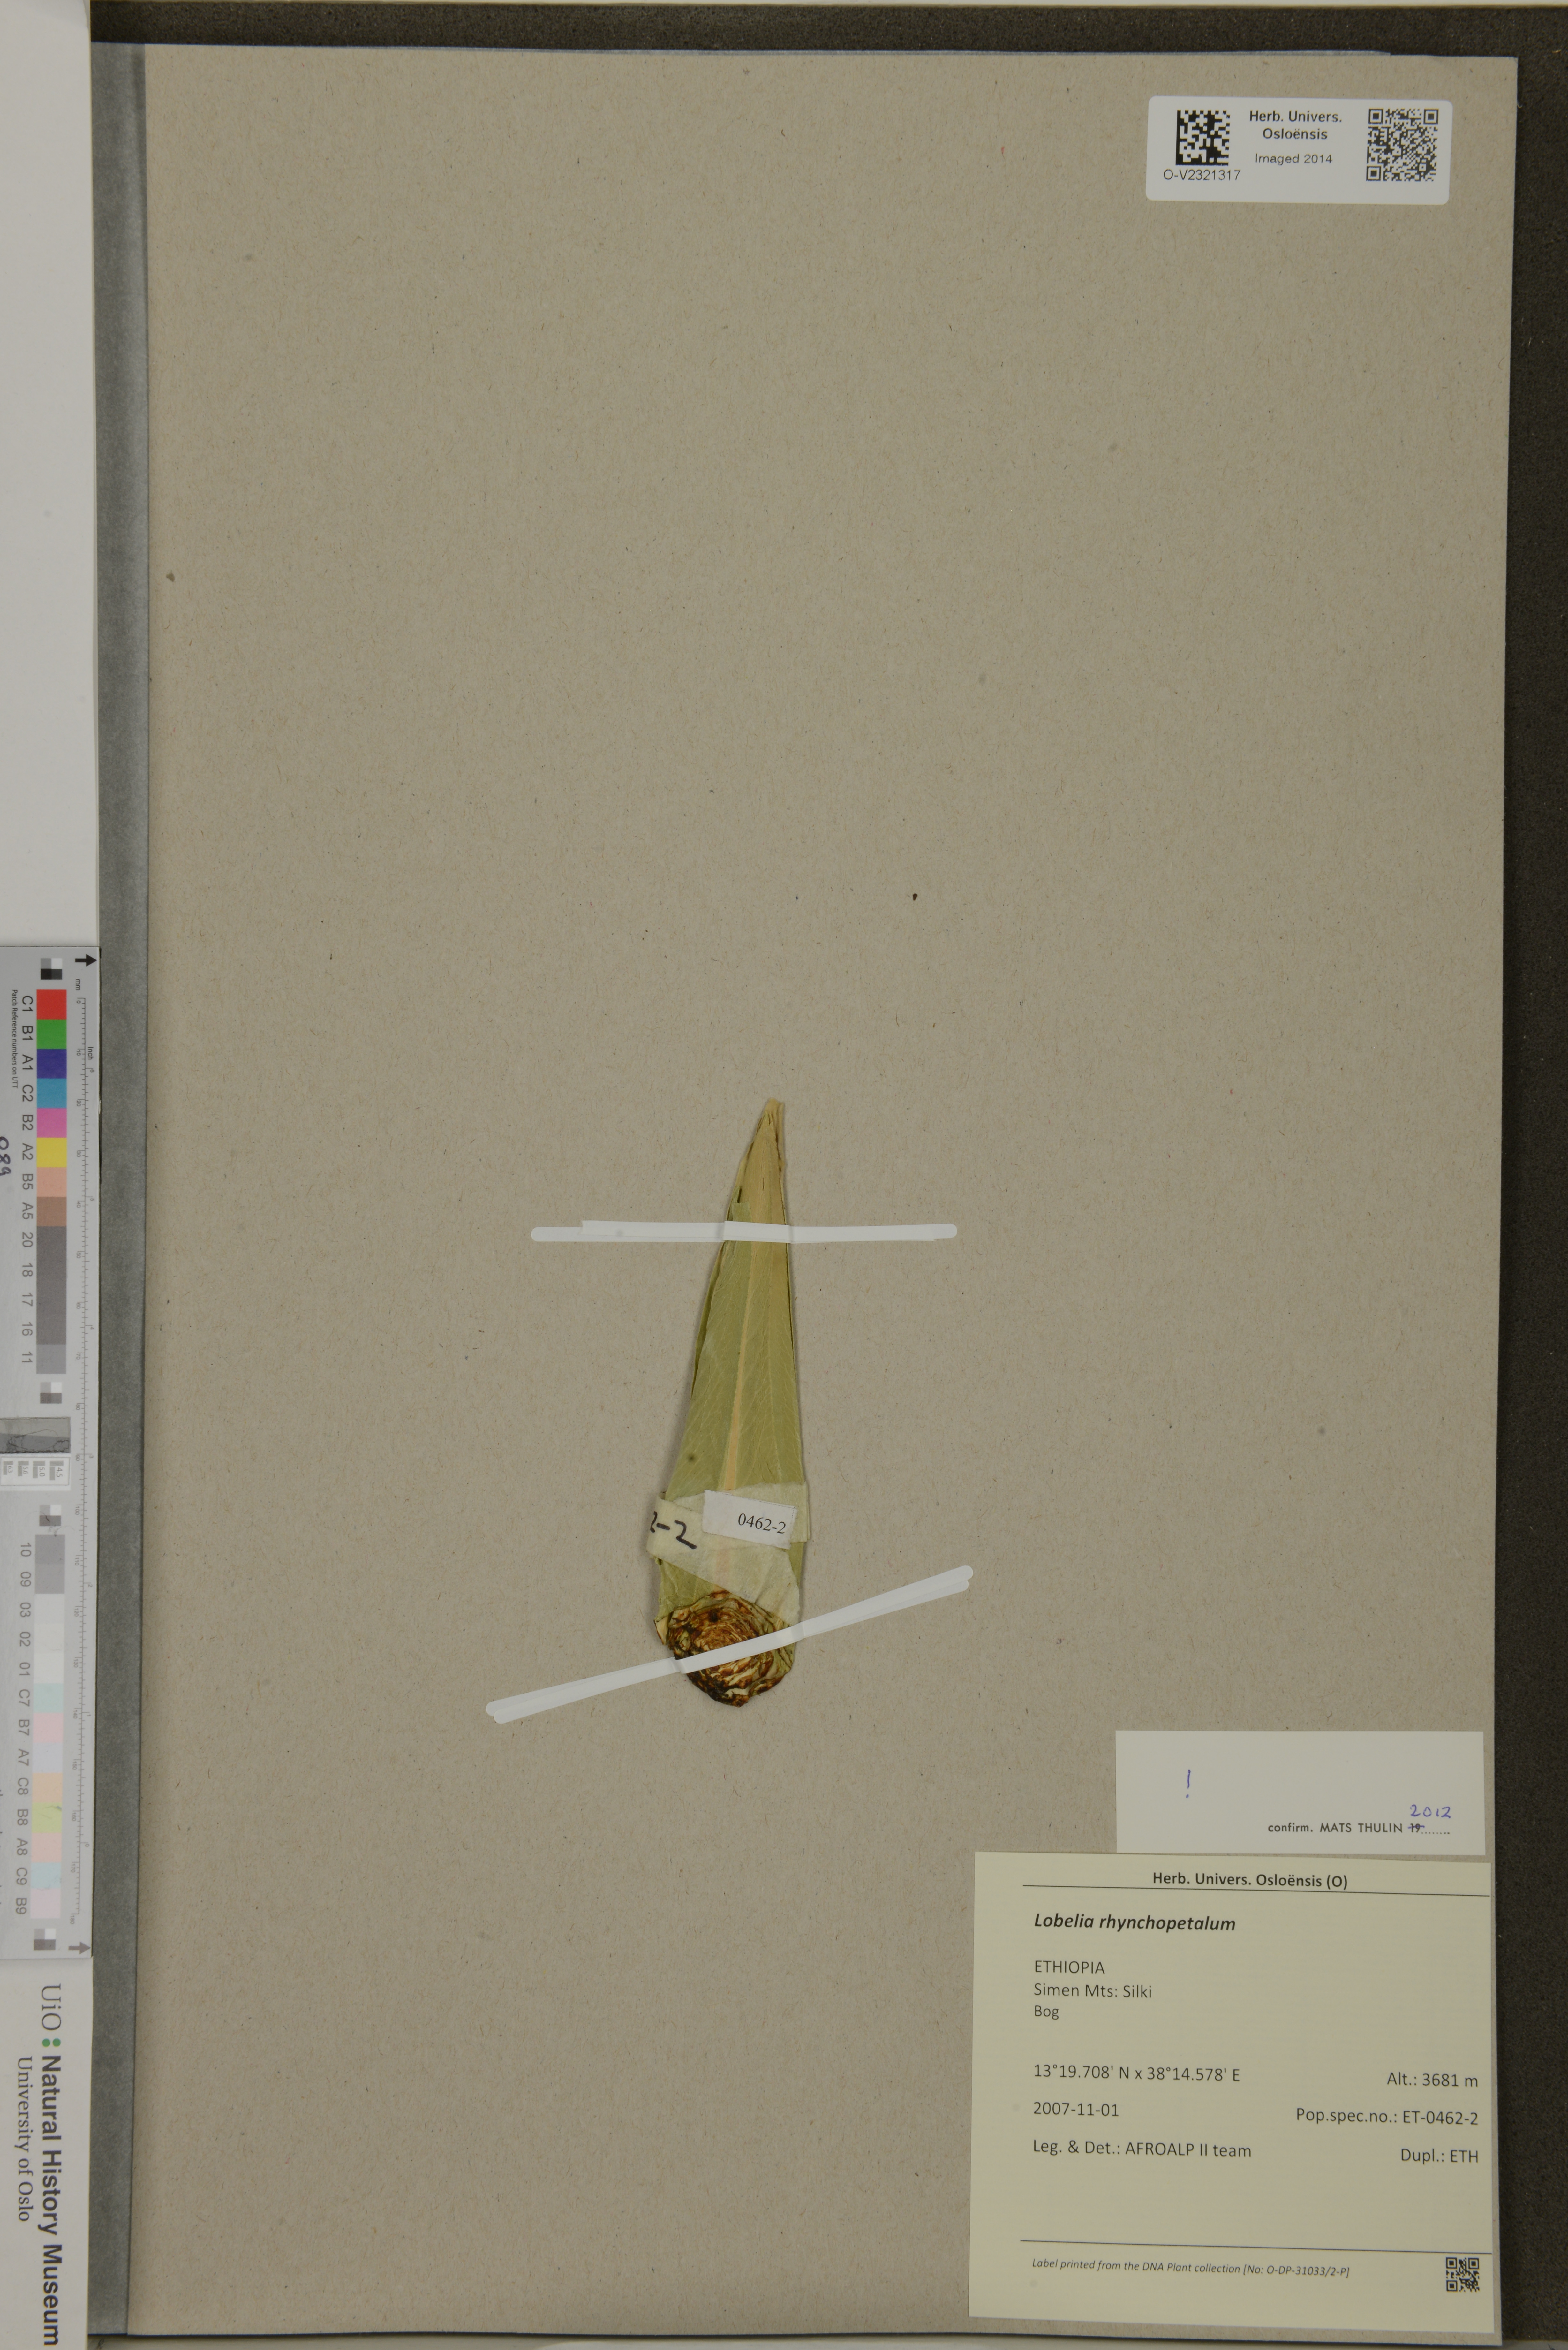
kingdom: Plantae
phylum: Tracheophyta
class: Magnoliopsida
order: Asterales
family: Campanulaceae
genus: Lobelia
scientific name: Lobelia rhynchopetalum
